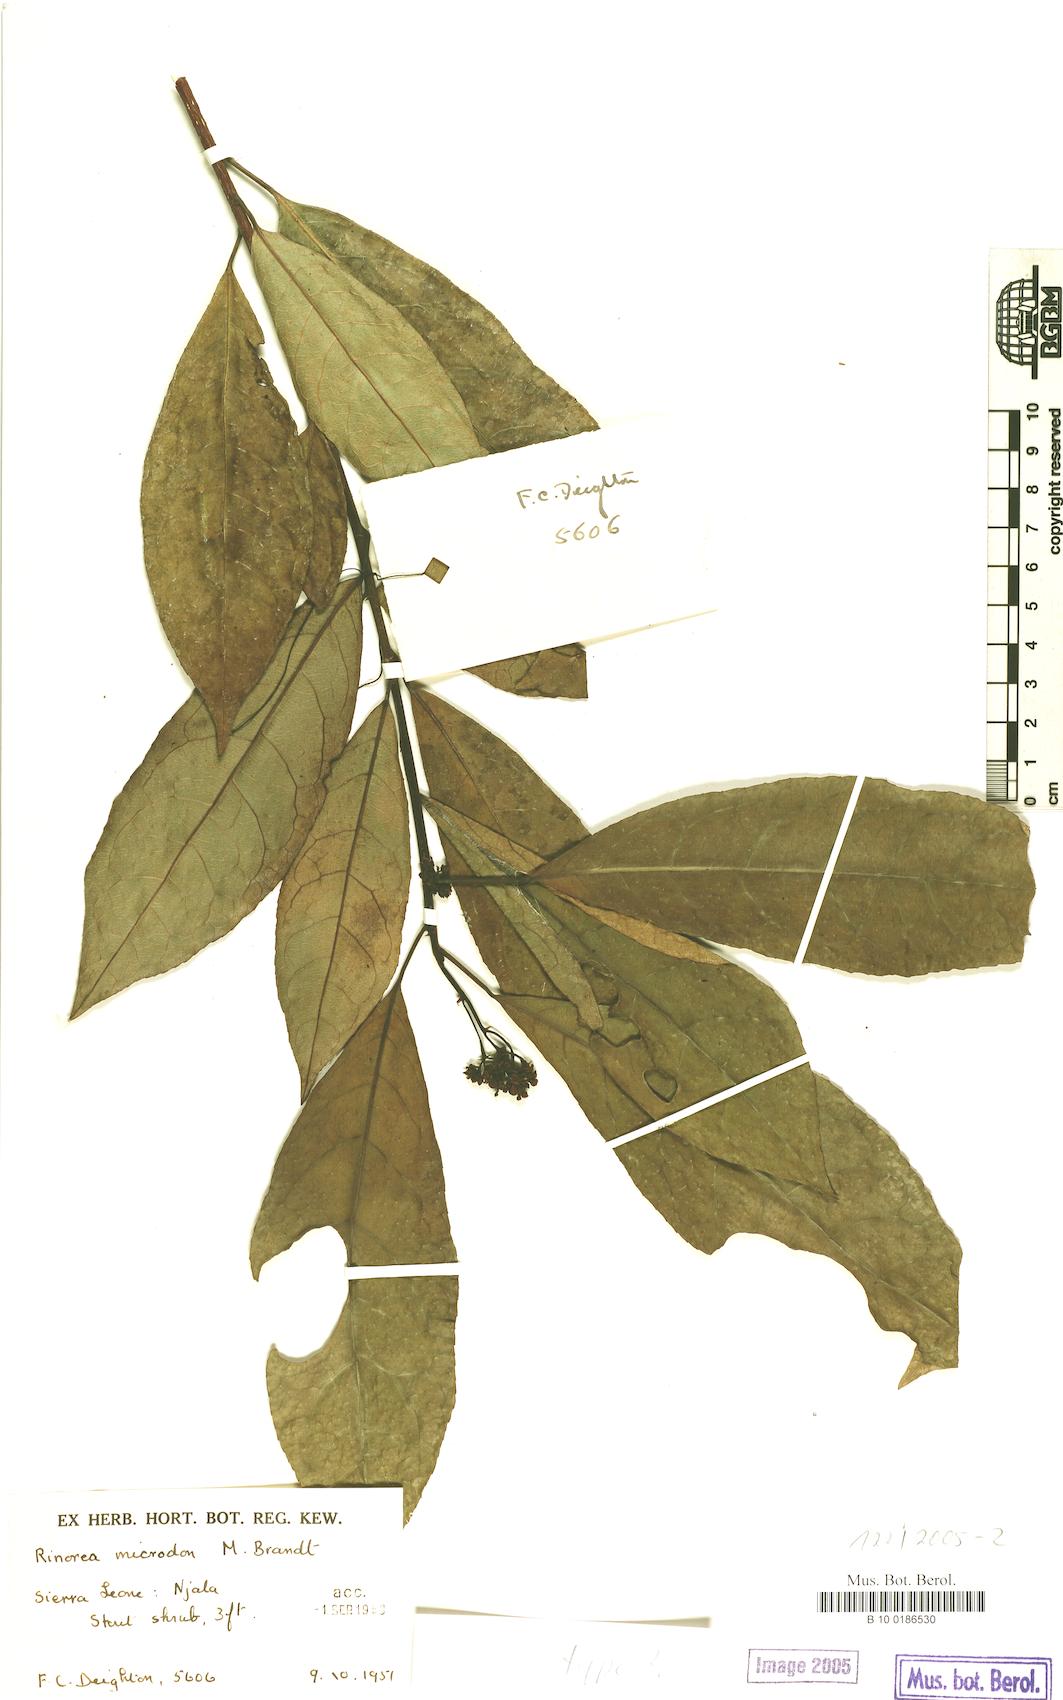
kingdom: Plantae
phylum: Tracheophyta
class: Magnoliopsida
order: Malpighiales
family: Violaceae
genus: Rinorea
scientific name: Rinorea microdon
